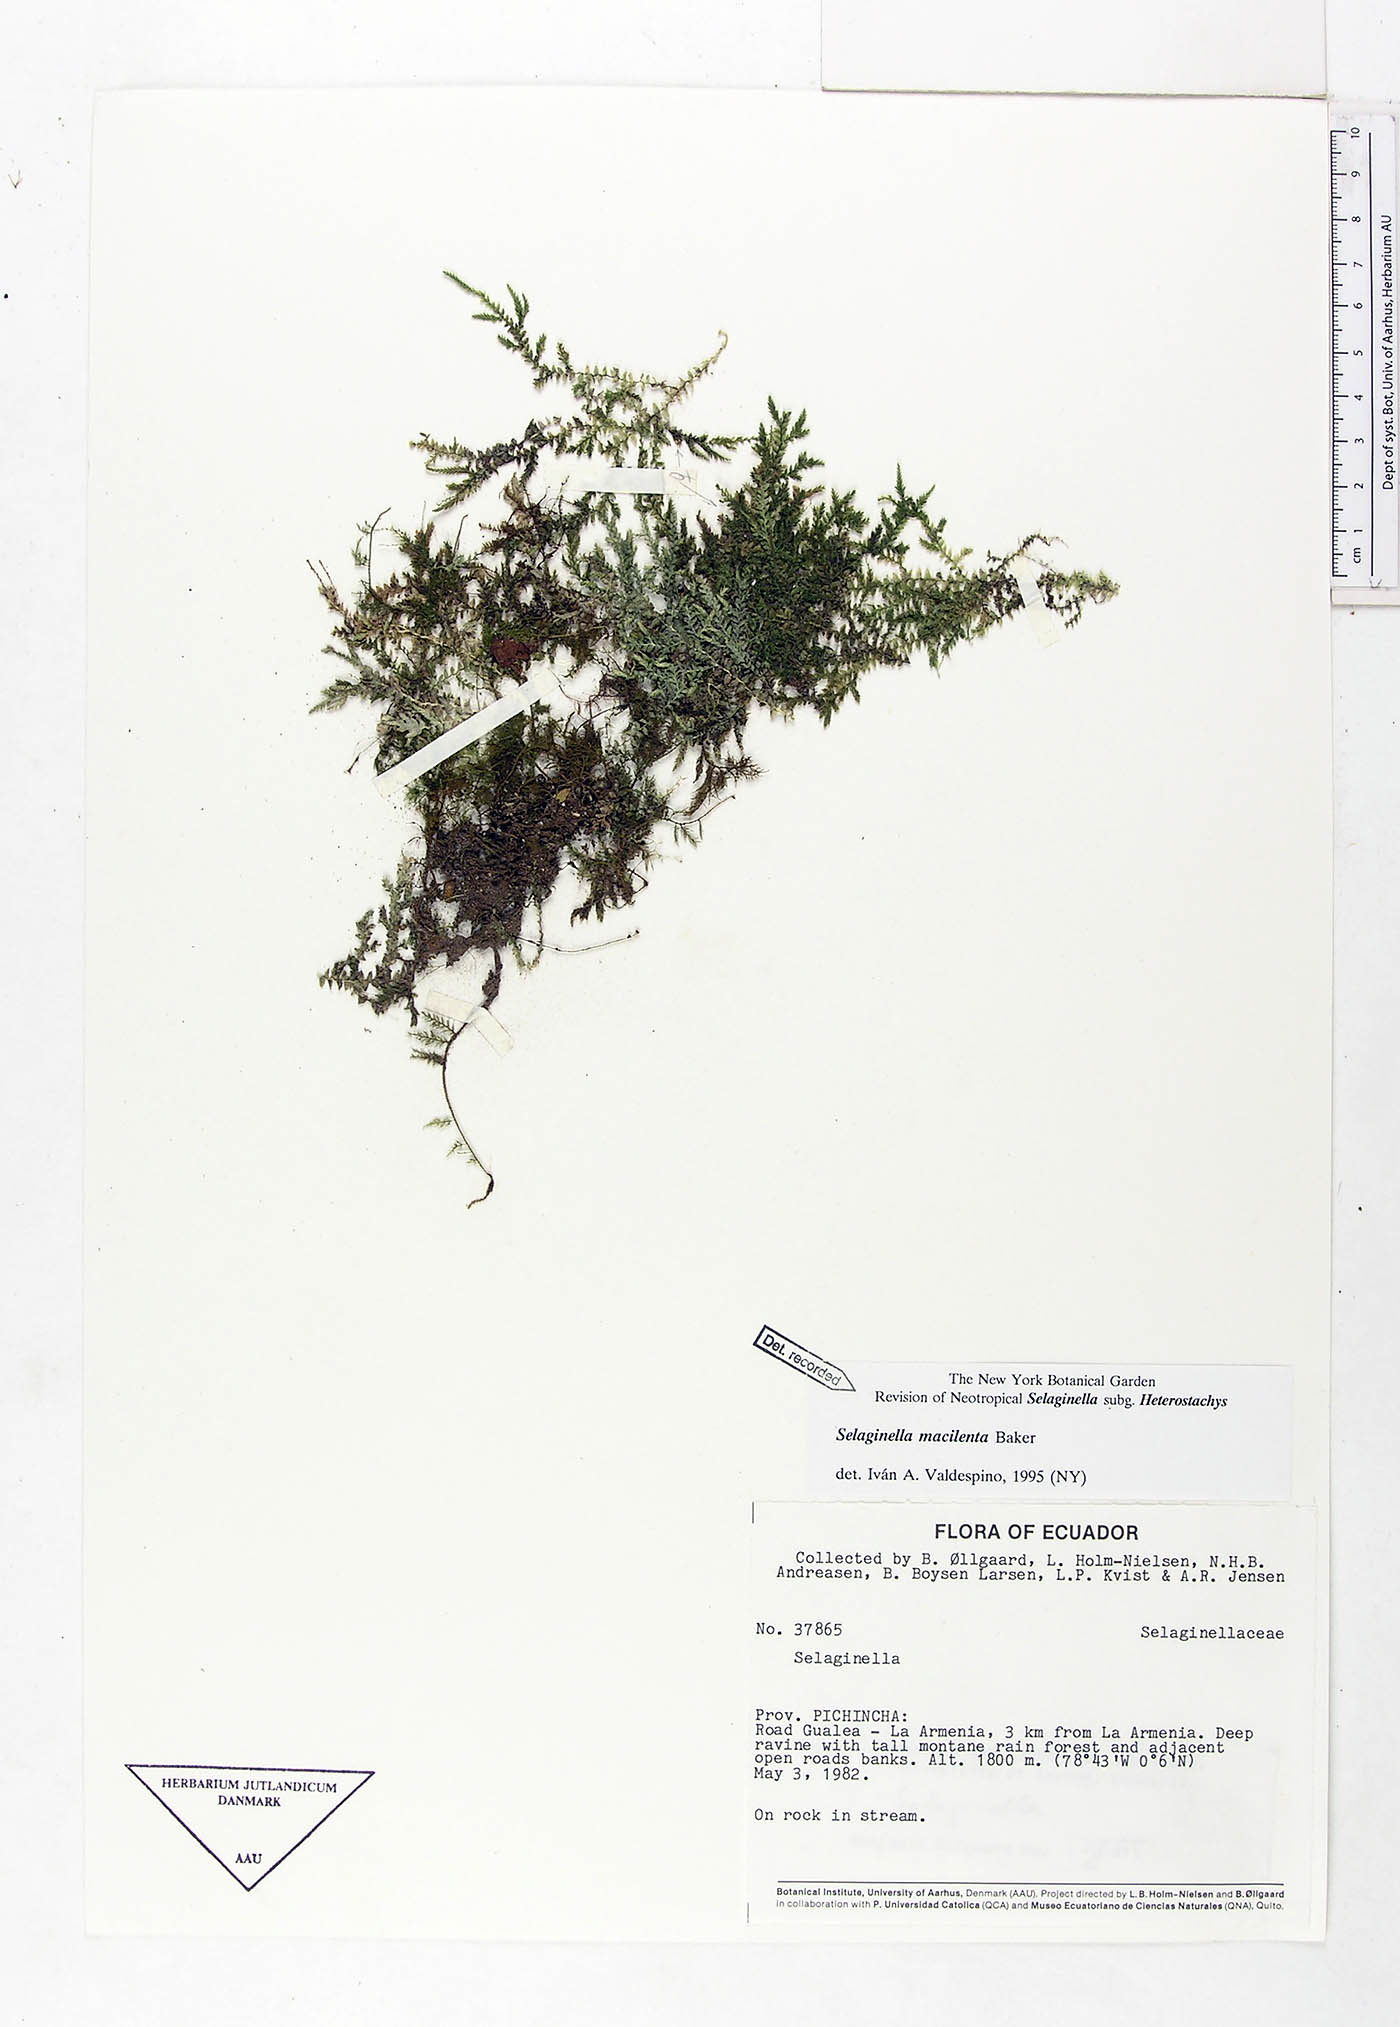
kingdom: Plantae
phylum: Tracheophyta
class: Lycopodiopsida
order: Selaginellales
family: Selaginellaceae
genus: Selaginella
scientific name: Selaginella macilenta
